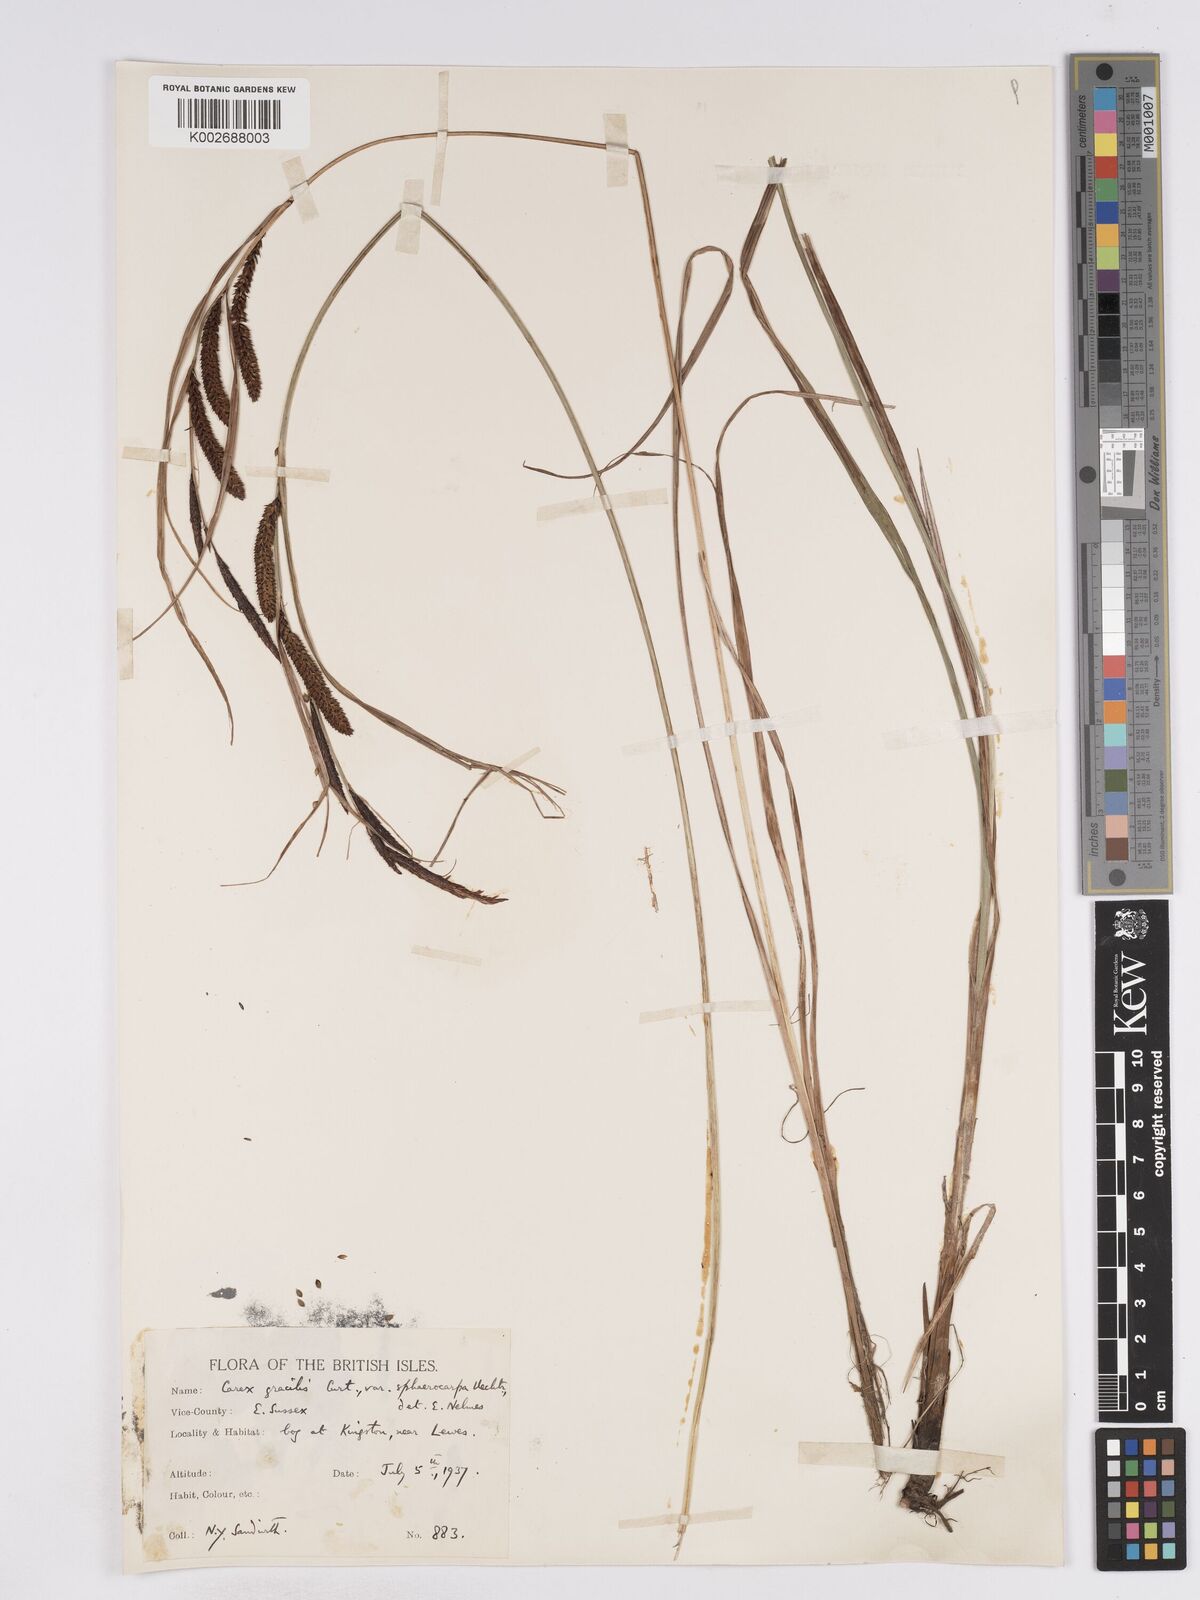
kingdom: Plantae
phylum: Tracheophyta
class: Liliopsida
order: Poales
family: Cyperaceae
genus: Carex
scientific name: Carex acuta
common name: Slender tufted-sedge
